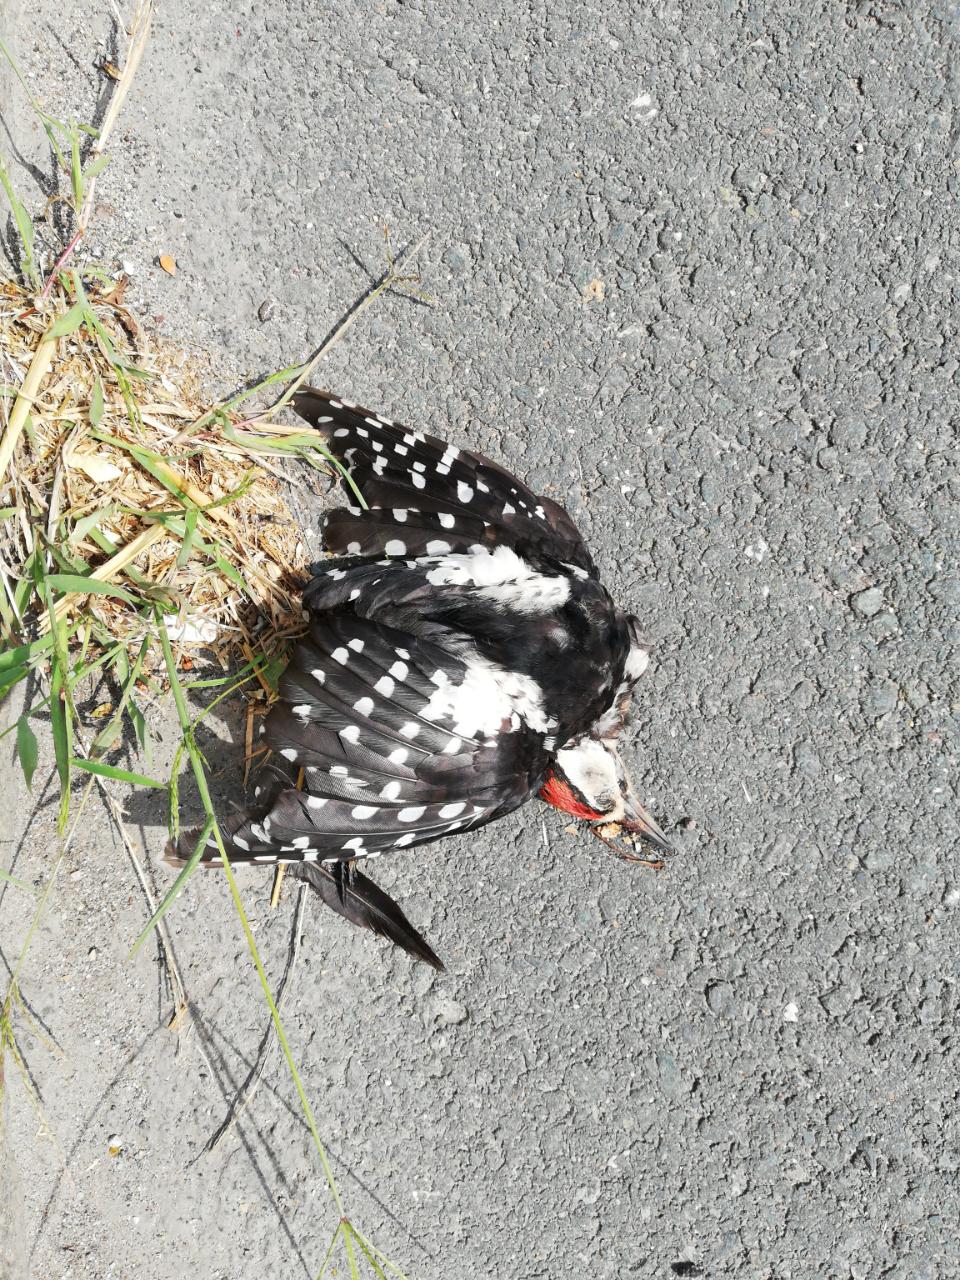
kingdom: Animalia
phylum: Chordata
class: Aves
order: Piciformes
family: Picidae
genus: Dendrocopos
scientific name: Dendrocopos major
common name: Great spotted woodpecker
